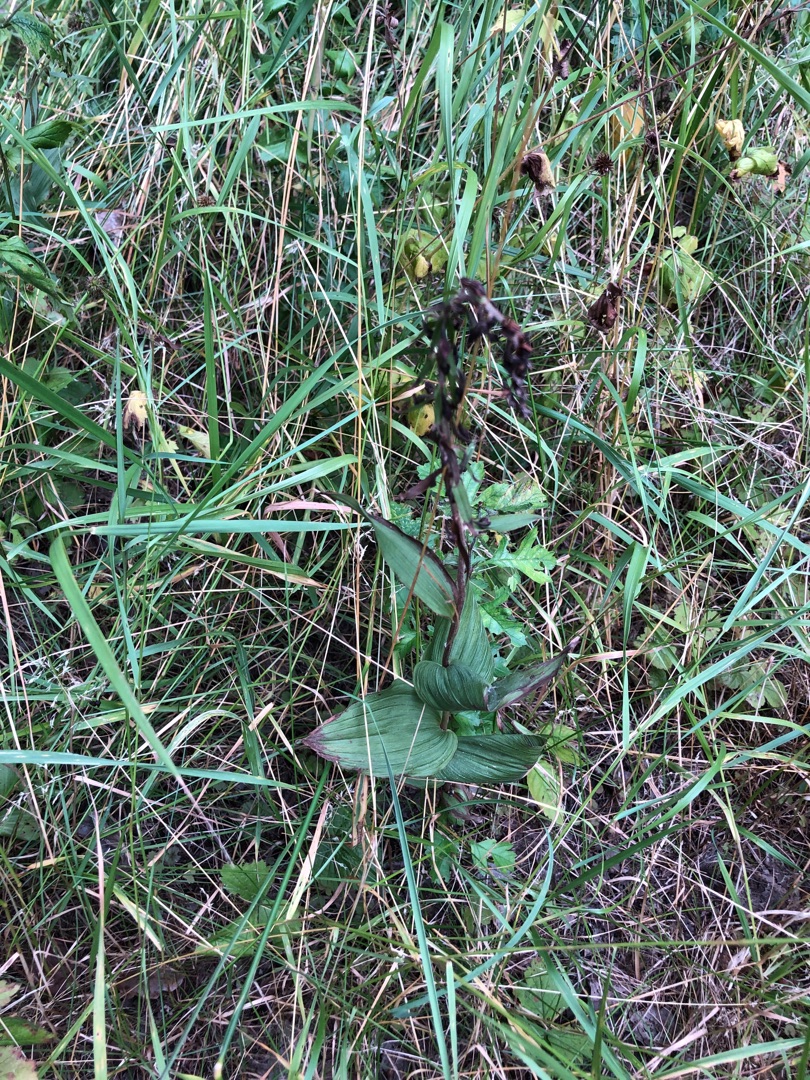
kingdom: Plantae
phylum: Tracheophyta
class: Liliopsida
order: Asparagales
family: Orchidaceae
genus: Epipactis
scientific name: Epipactis helleborine
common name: Skov-hullæbe
